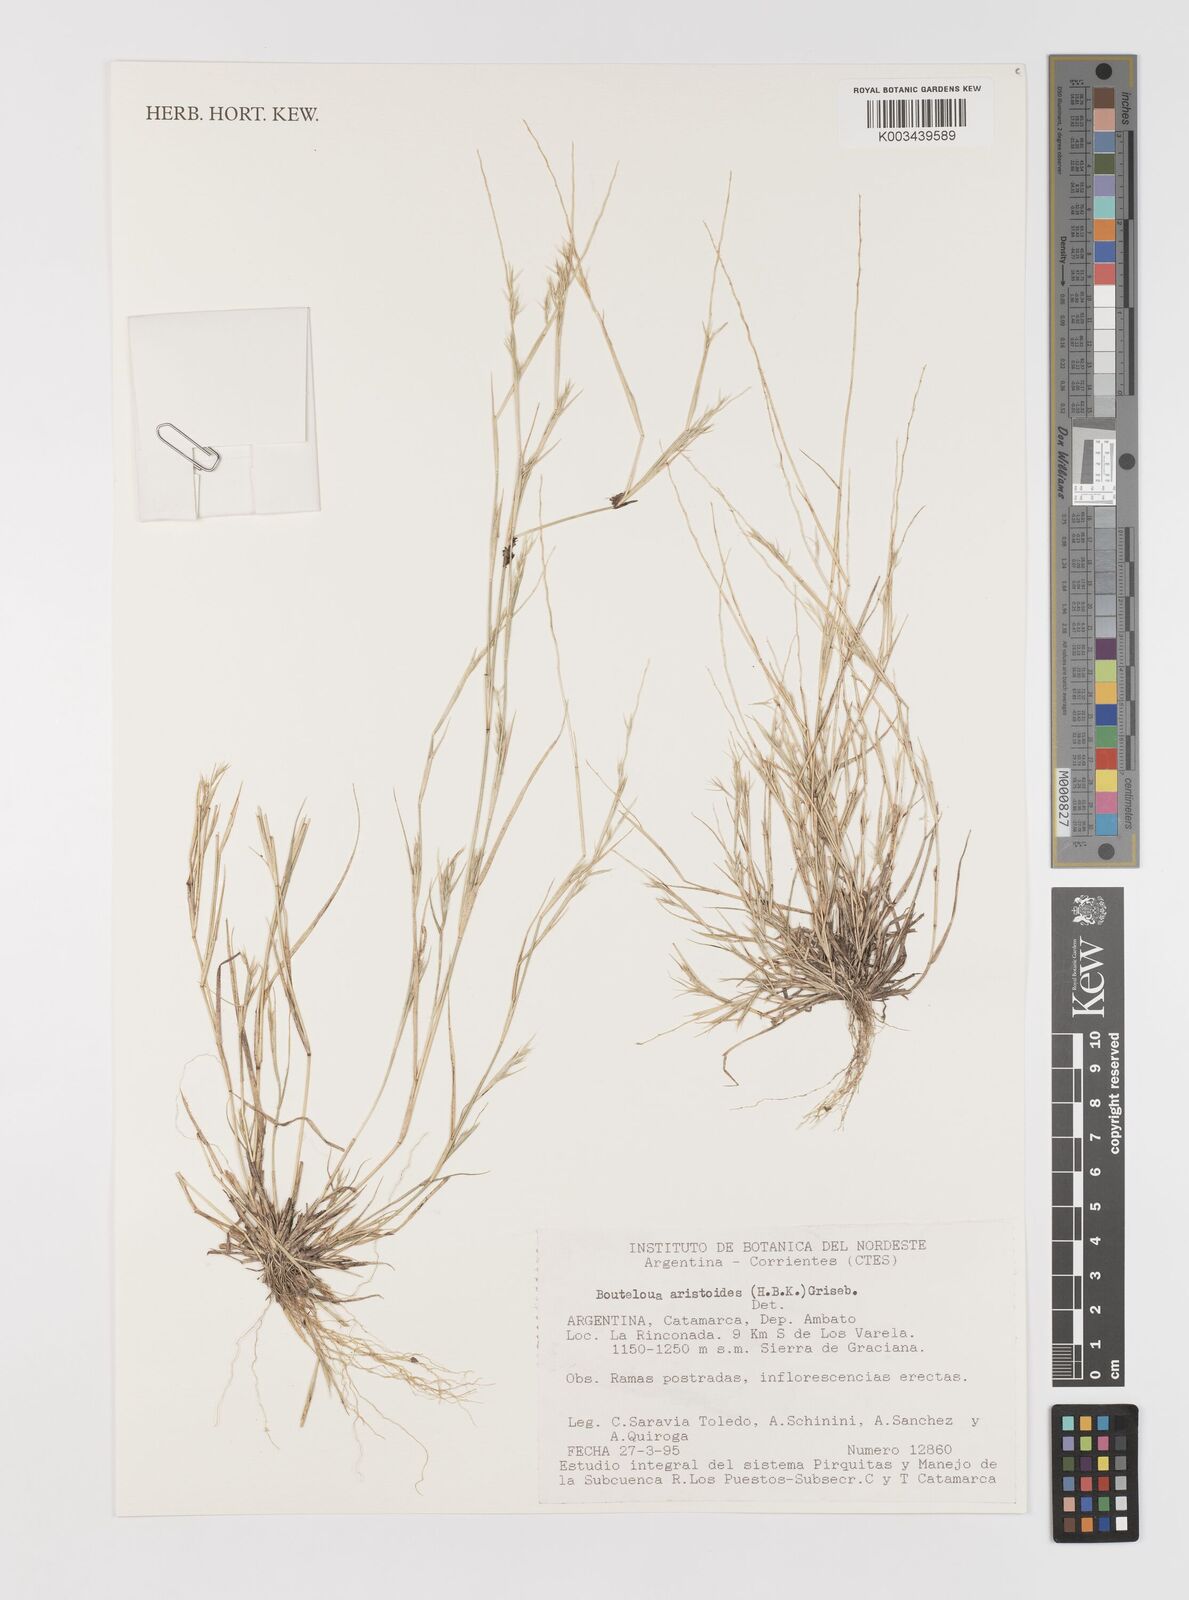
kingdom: Plantae
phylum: Tracheophyta
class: Liliopsida
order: Poales
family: Poaceae
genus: Bouteloua
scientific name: Bouteloua
